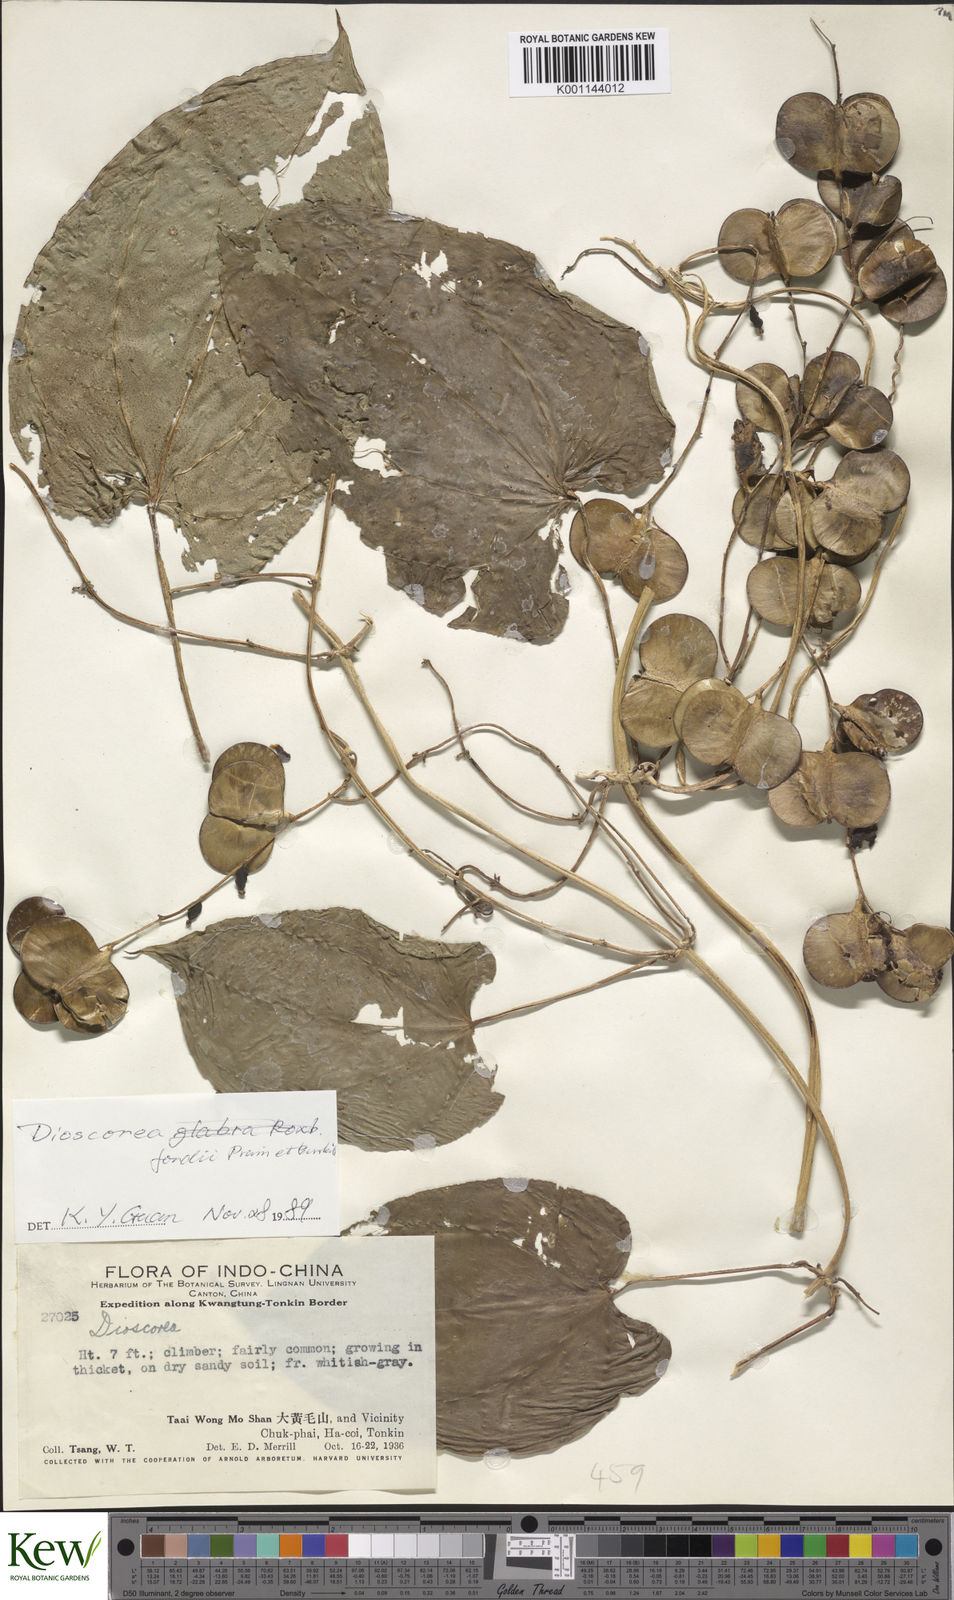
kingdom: Plantae
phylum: Tracheophyta
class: Liliopsida
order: Dioscoreales
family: Dioscoreaceae
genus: Dioscorea
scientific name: Dioscorea fordii
